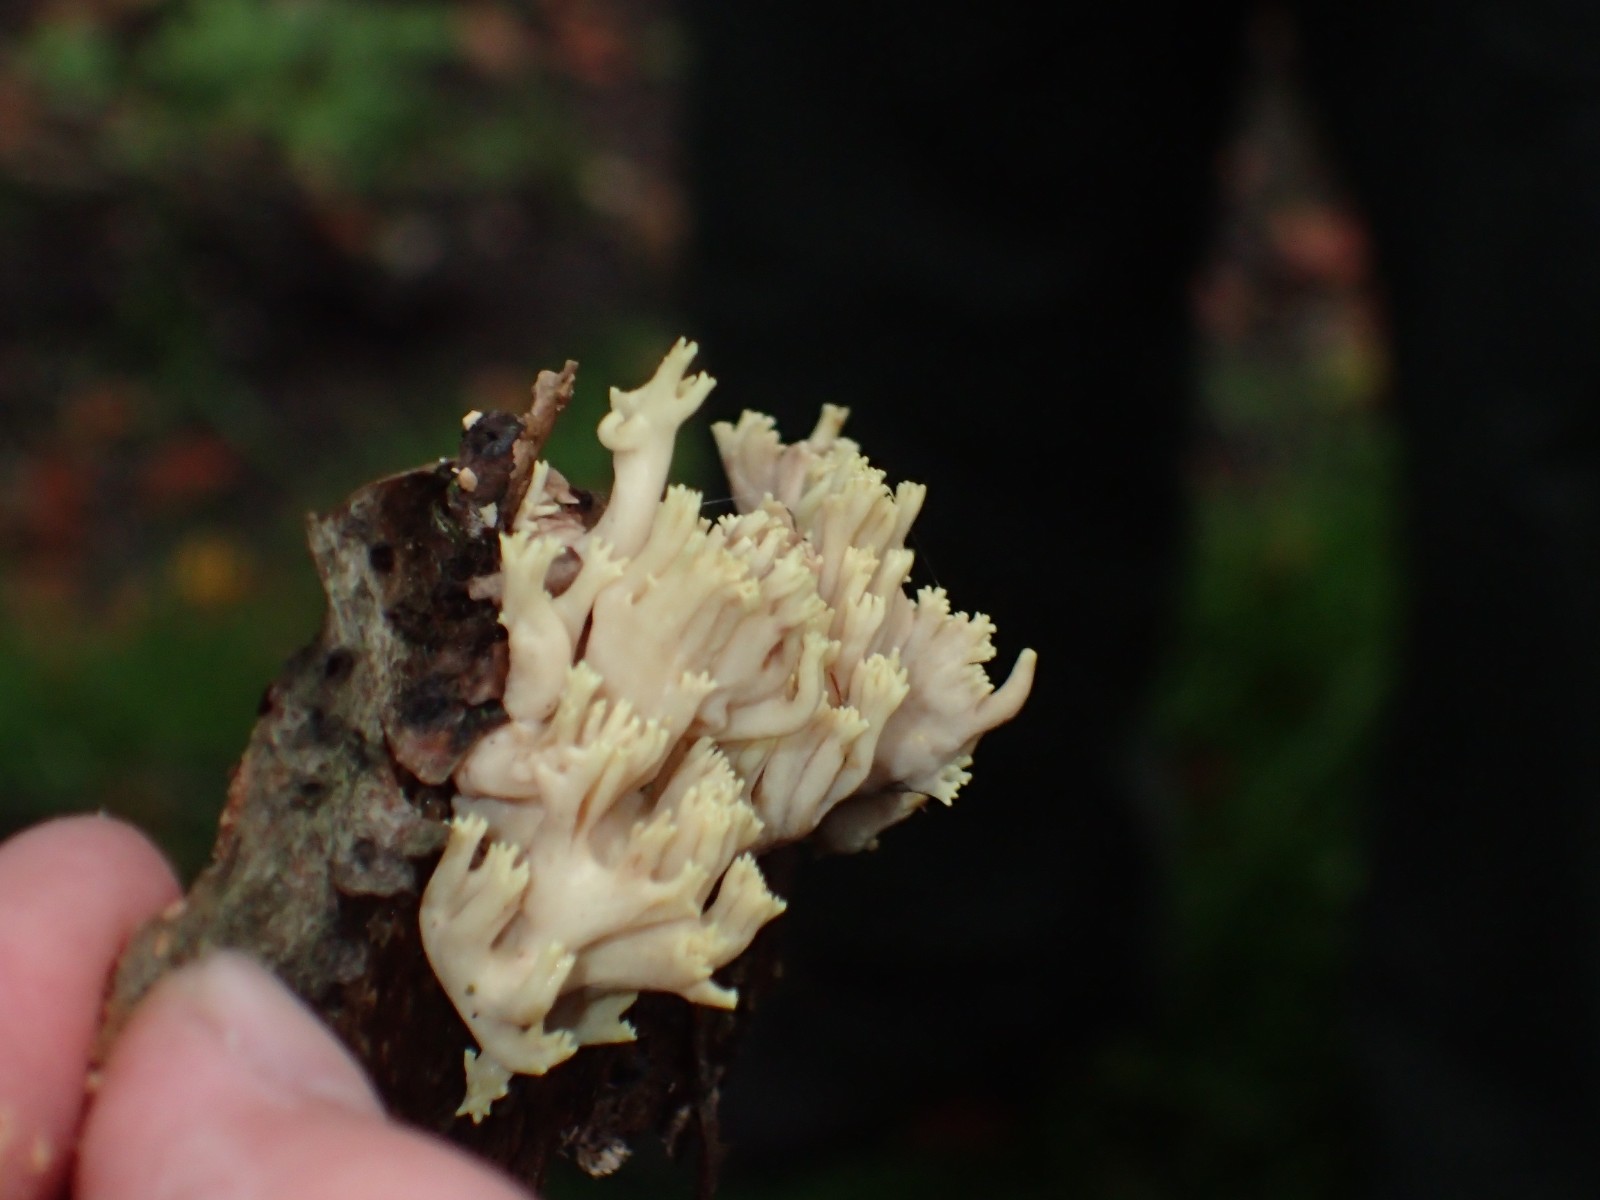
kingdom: Fungi
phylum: Basidiomycota
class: Agaricomycetes
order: Gomphales
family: Gomphaceae
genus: Ramaria
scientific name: Ramaria stricta
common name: rank koralsvamp
